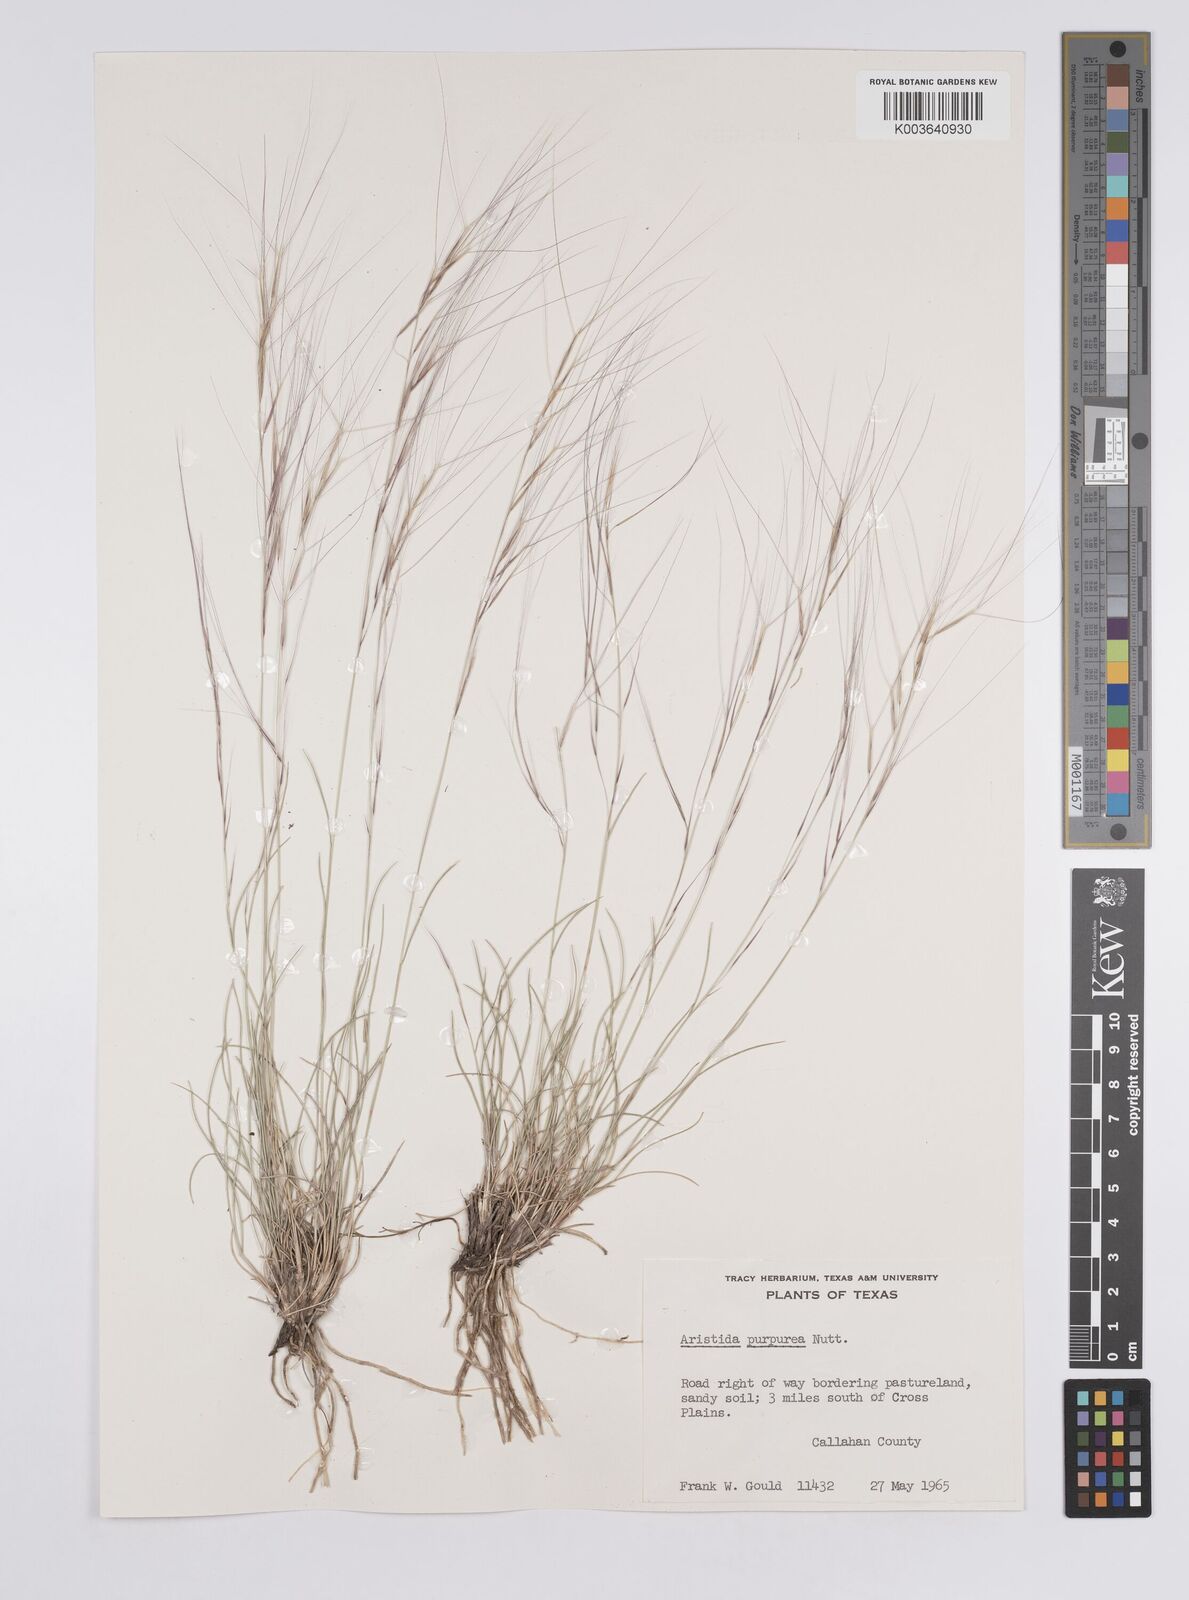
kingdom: Plantae
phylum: Tracheophyta
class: Liliopsida
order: Poales
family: Poaceae
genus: Aristida
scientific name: Aristida purpurea
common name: Purple threeawn
